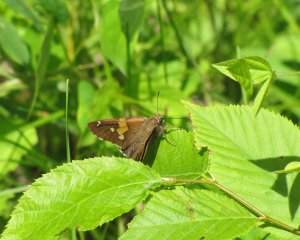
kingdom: Animalia
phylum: Arthropoda
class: Insecta
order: Lepidoptera
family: Hesperiidae
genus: Epargyreus
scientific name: Epargyreus clarus
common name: Silver-spotted Skipper
